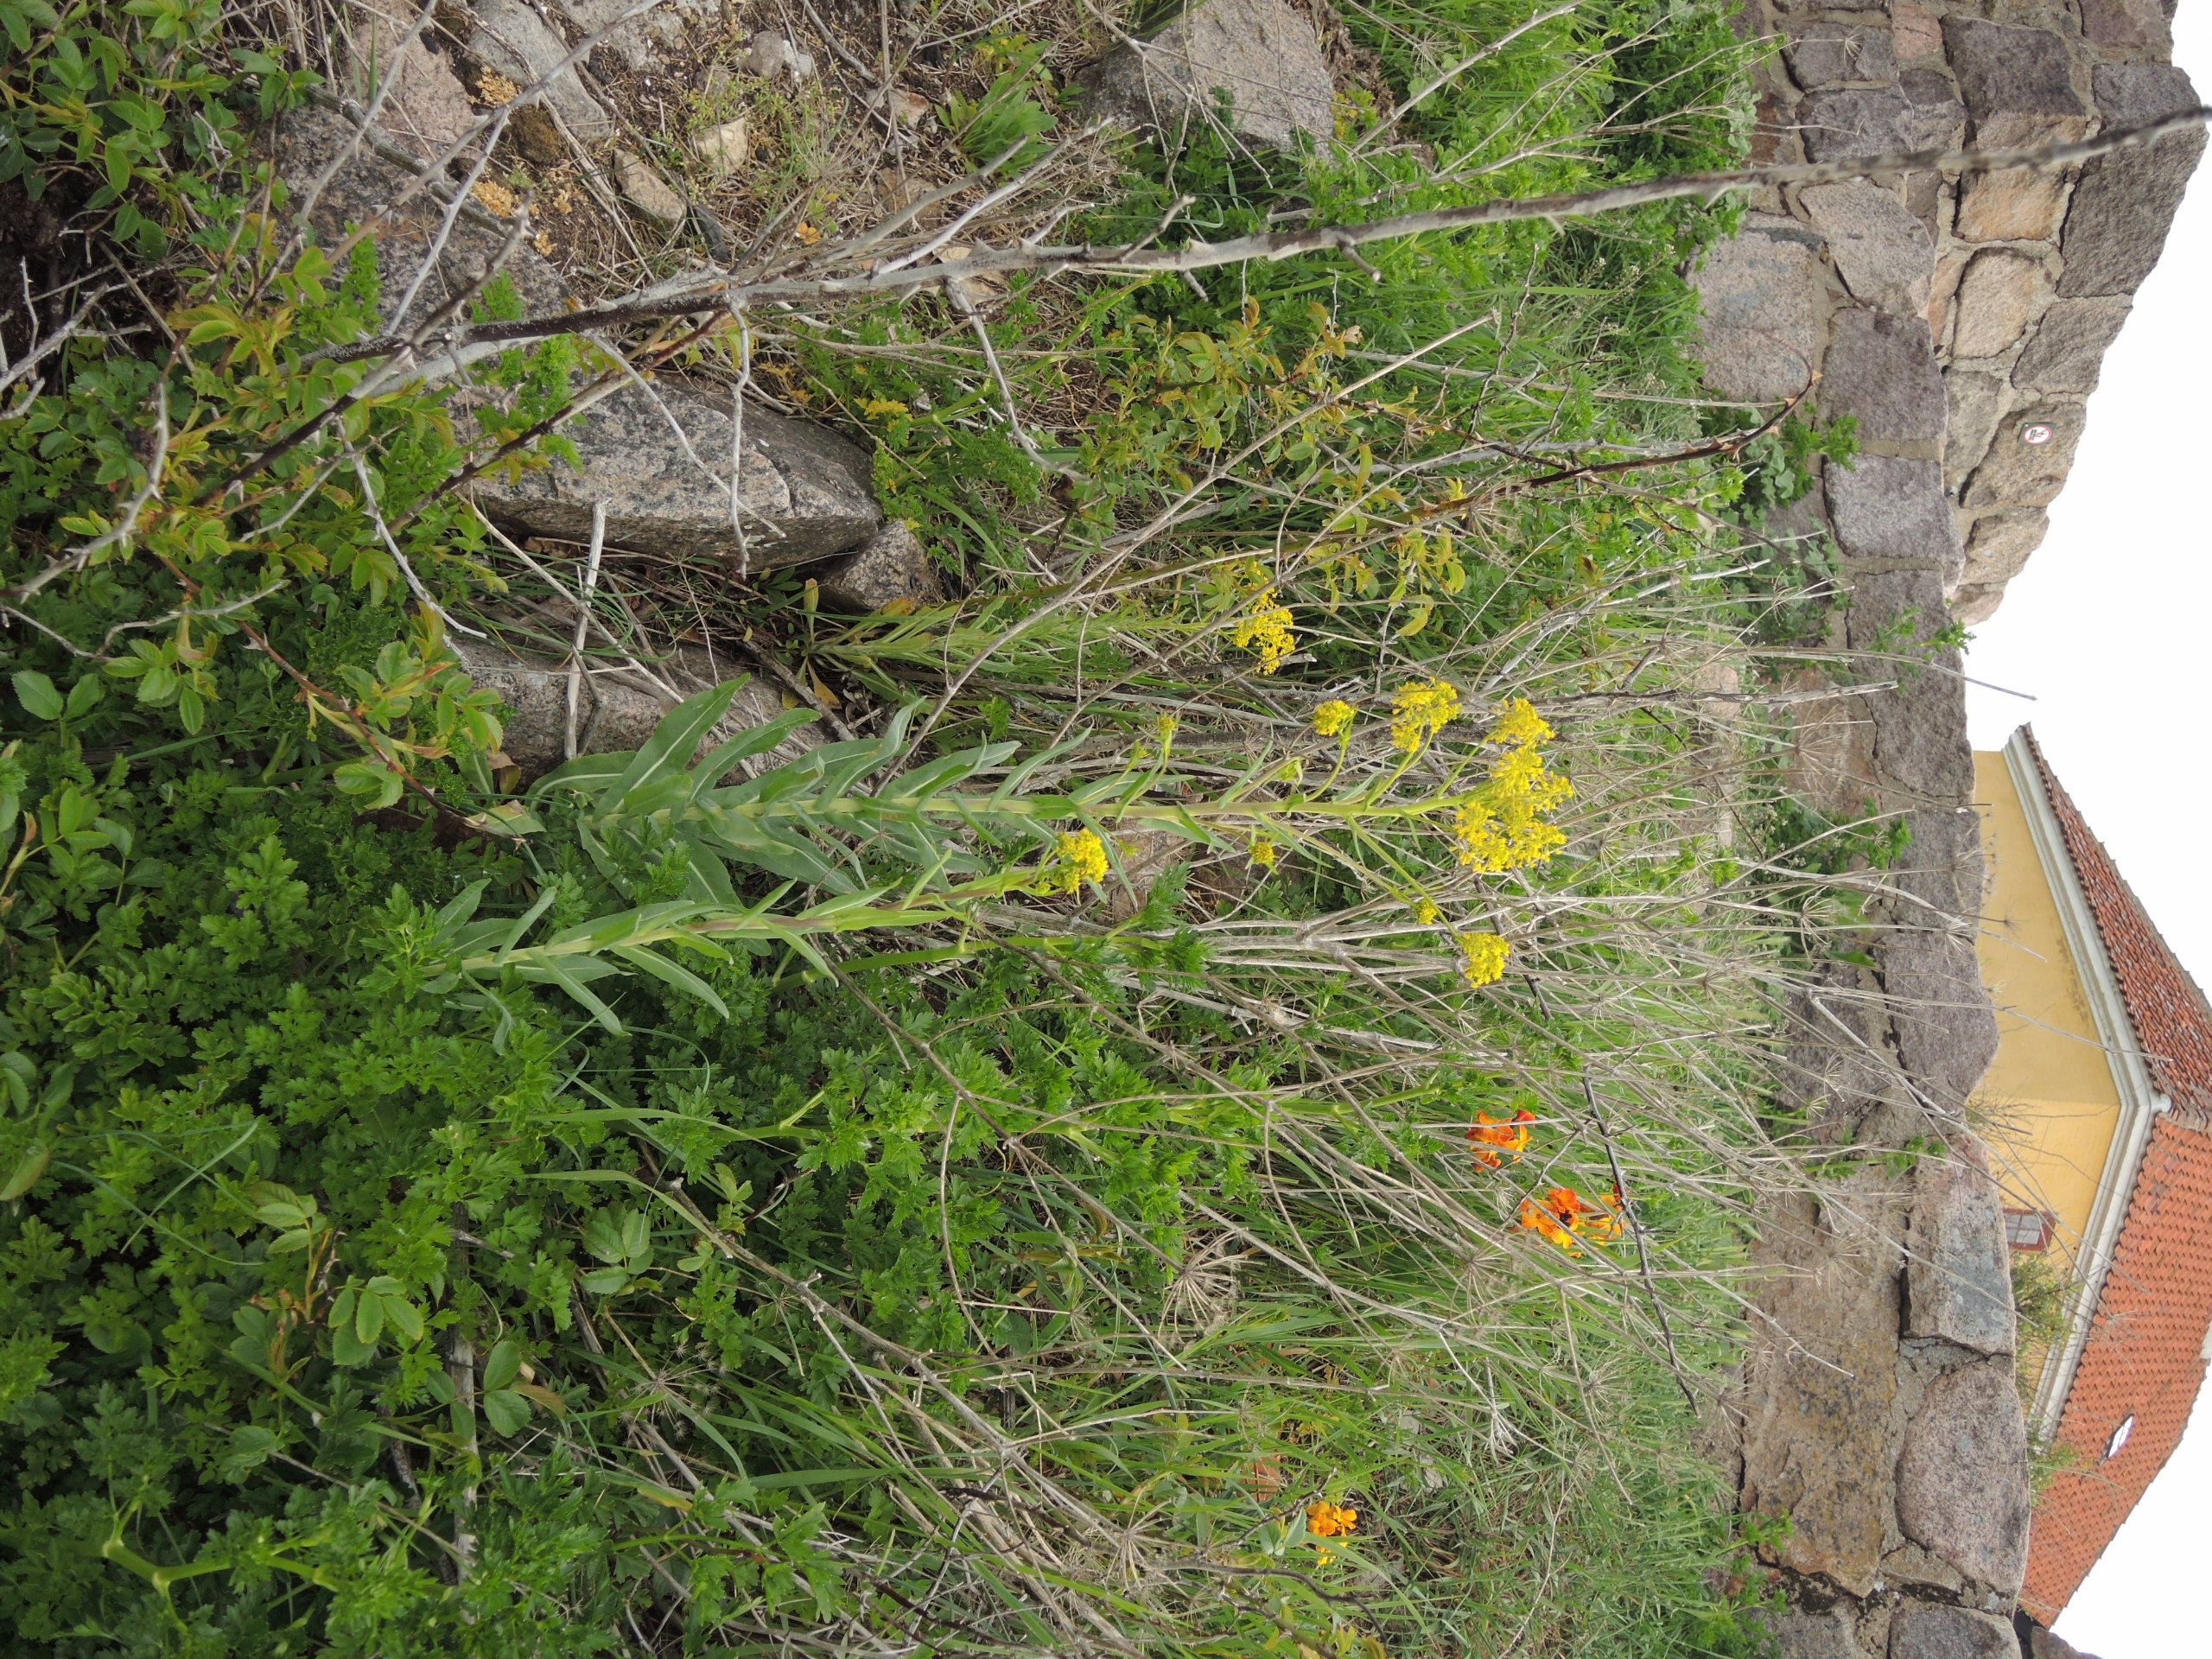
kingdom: Plantae
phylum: Tracheophyta
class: Magnoliopsida
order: Brassicales
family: Brassicaceae
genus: Isatis
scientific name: Isatis tinctoria
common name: Farve-vajd
